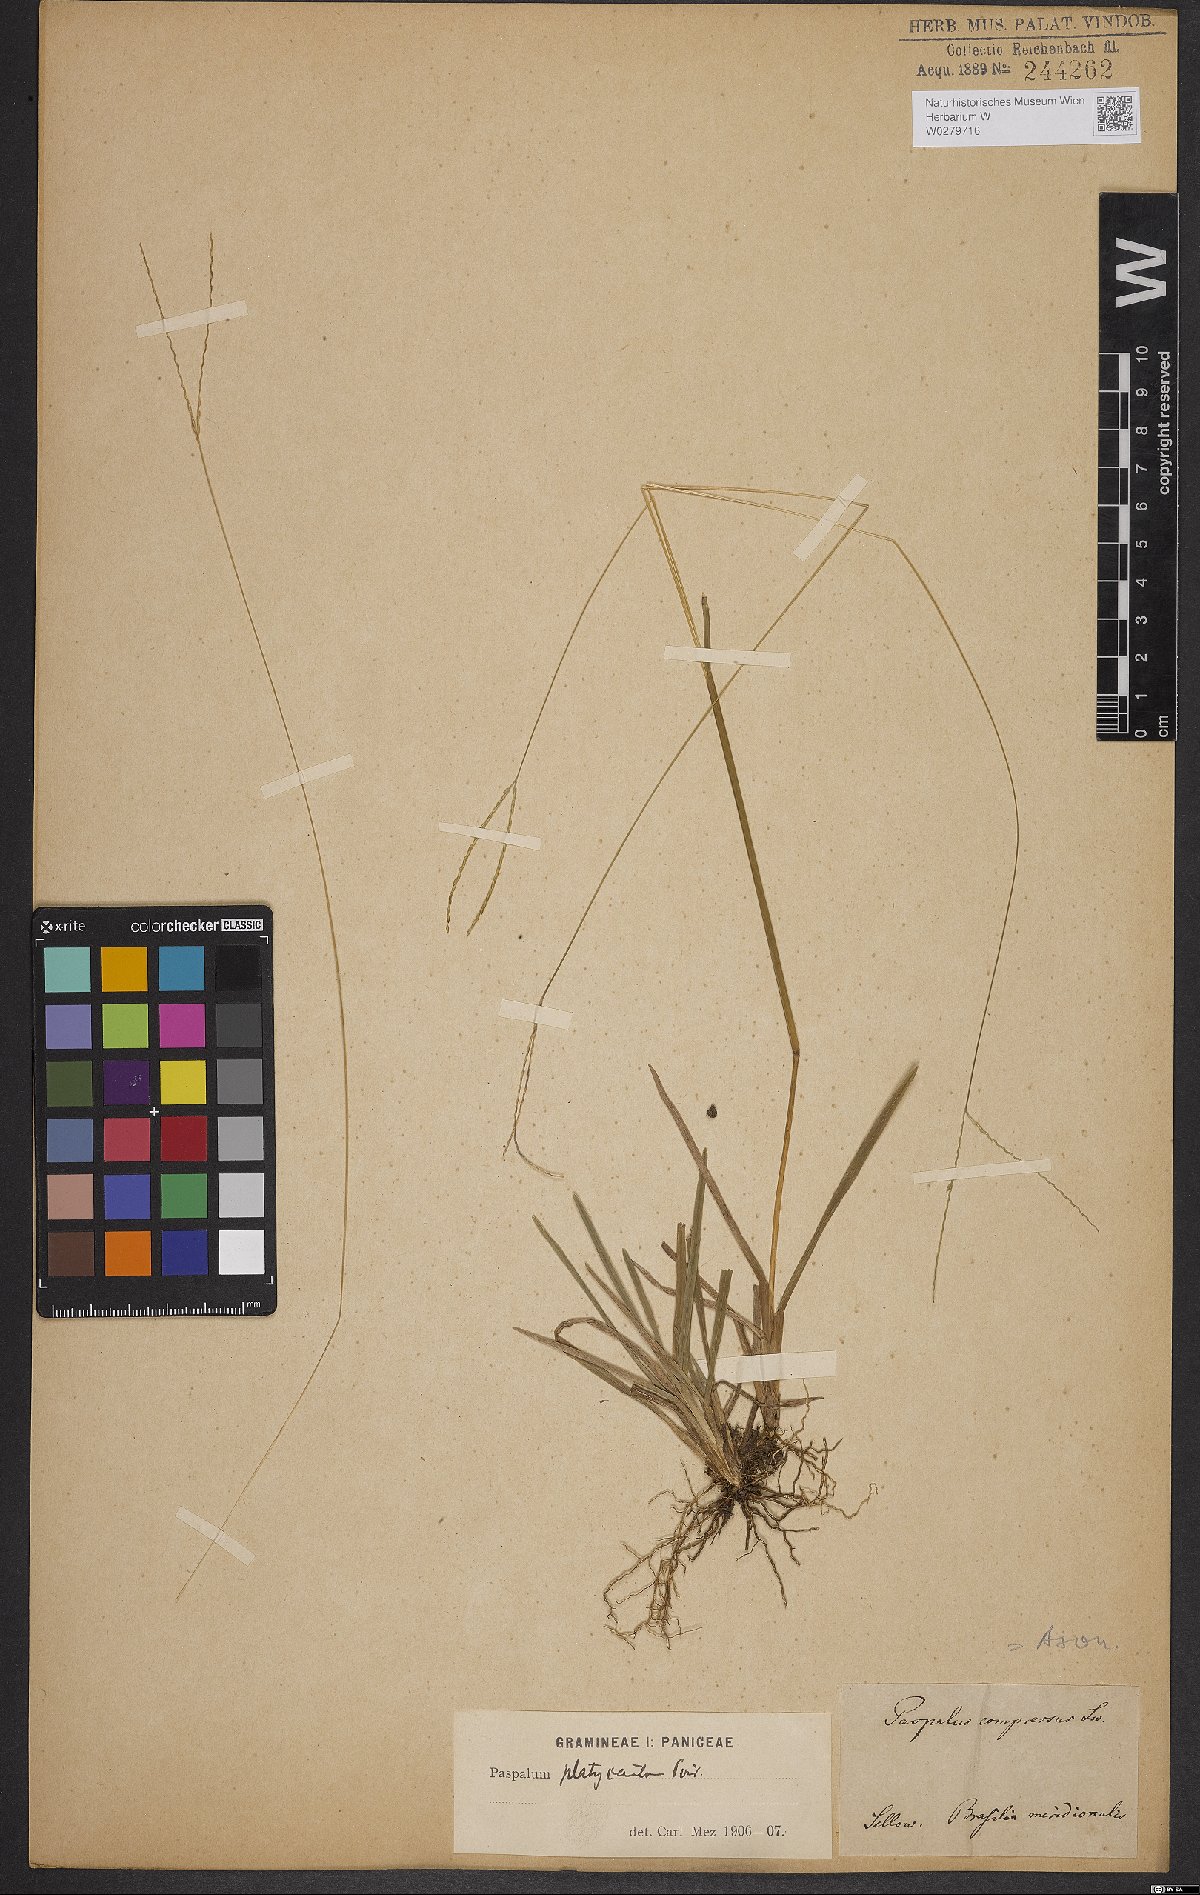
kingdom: Plantae
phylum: Tracheophyta
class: Liliopsida
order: Poales
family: Poaceae
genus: Axonopus
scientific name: Axonopus compressus
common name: American carpet grass
